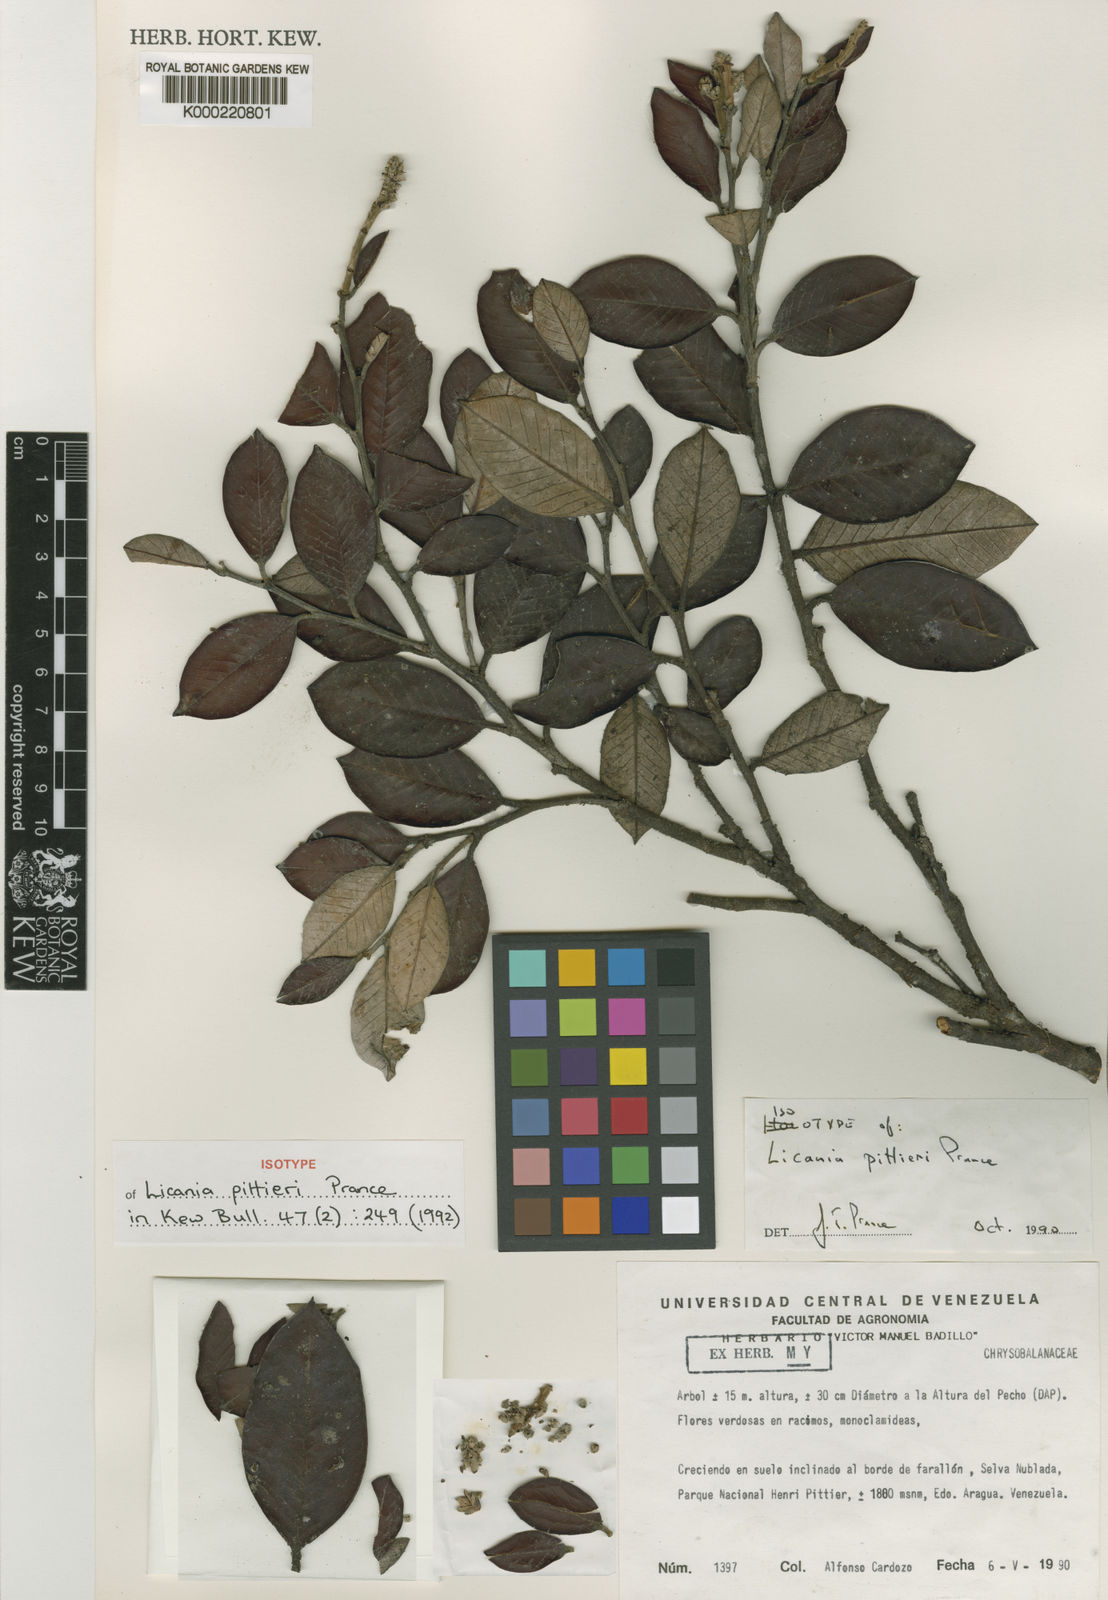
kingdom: Plantae
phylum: Tracheophyta
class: Magnoliopsida
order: Malpighiales
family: Chrysobalanaceae
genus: Licania
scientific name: Licania pittieri
